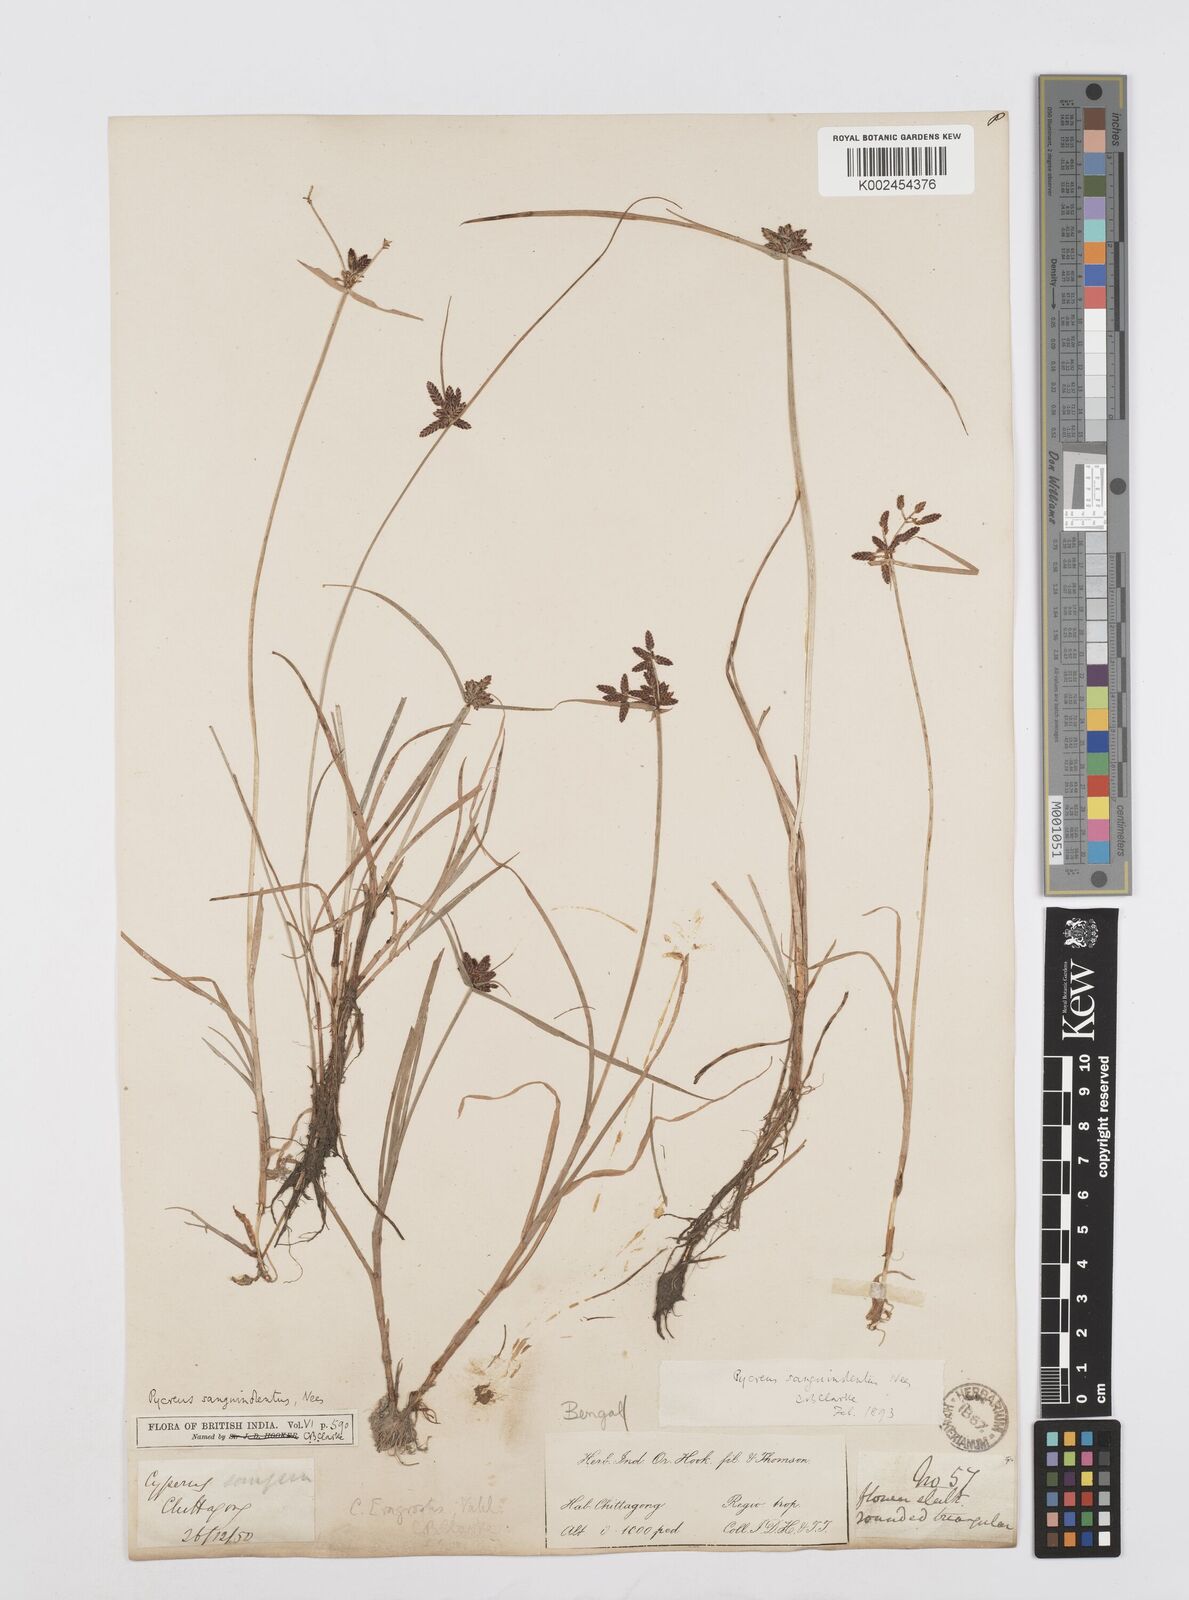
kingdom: Plantae
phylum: Tracheophyta
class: Liliopsida
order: Poales
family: Cyperaceae
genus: Cyperus
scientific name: Cyperus sanguinolentus
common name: Purpleglume flatsedge
